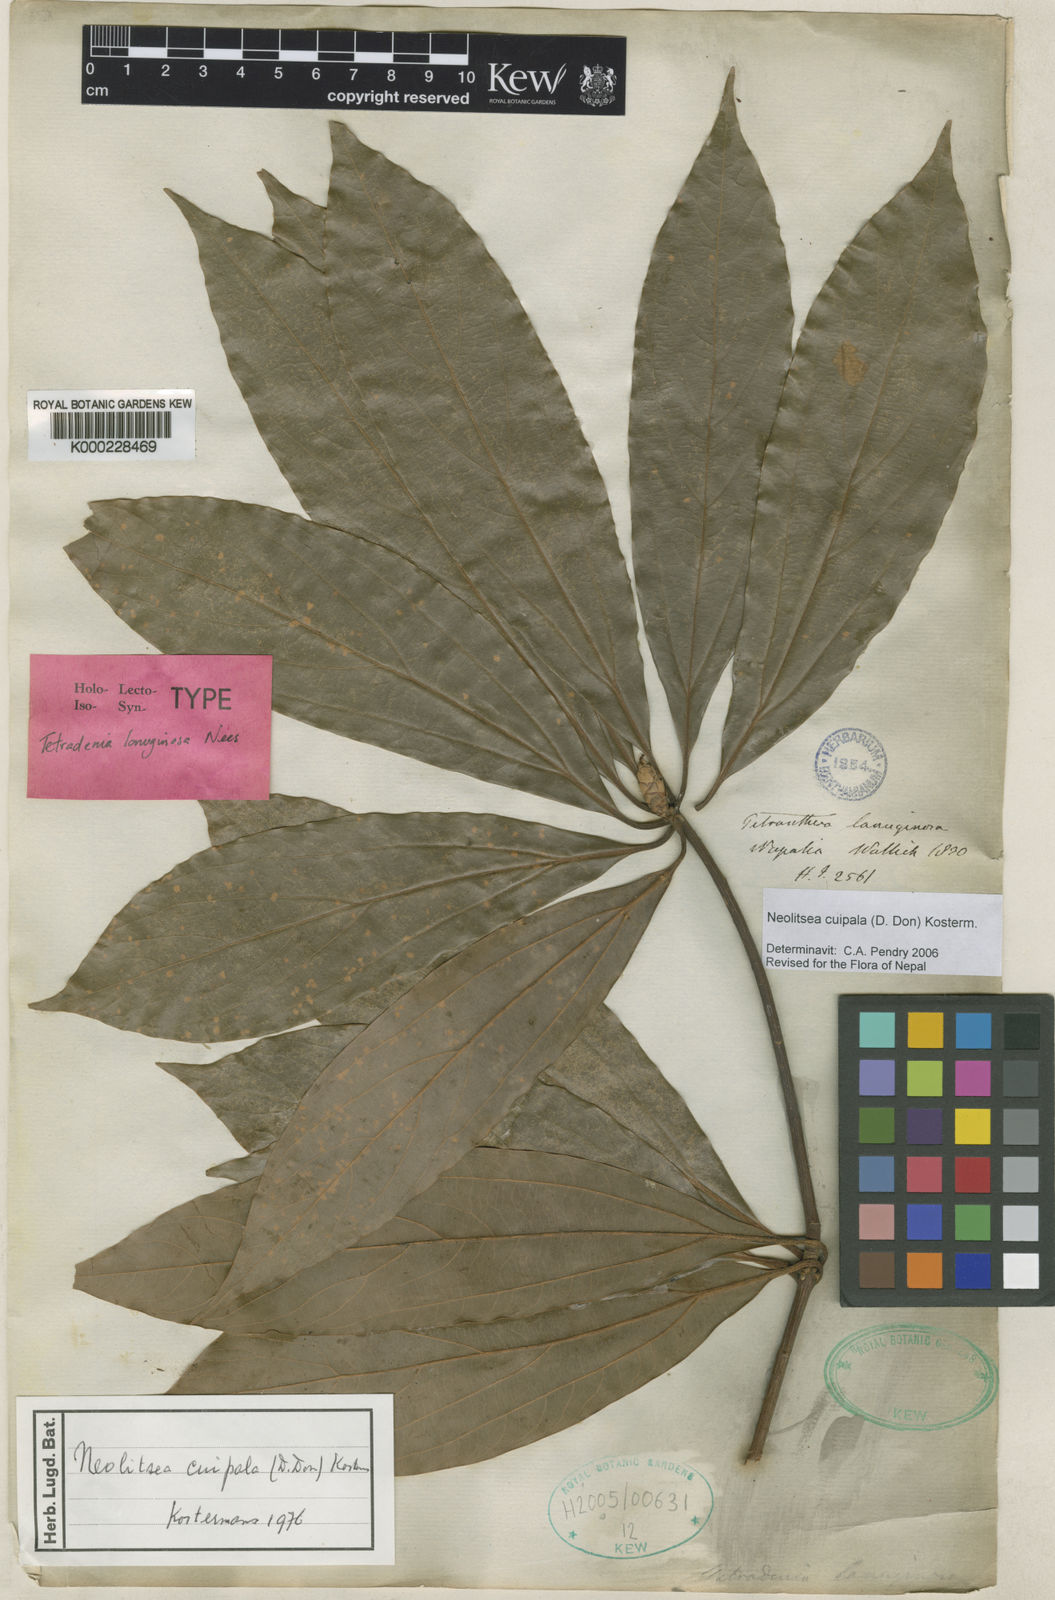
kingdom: Plantae
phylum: Tracheophyta
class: Magnoliopsida
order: Laurales
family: Lauraceae
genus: Neolitsea
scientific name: Neolitsea cuipala
